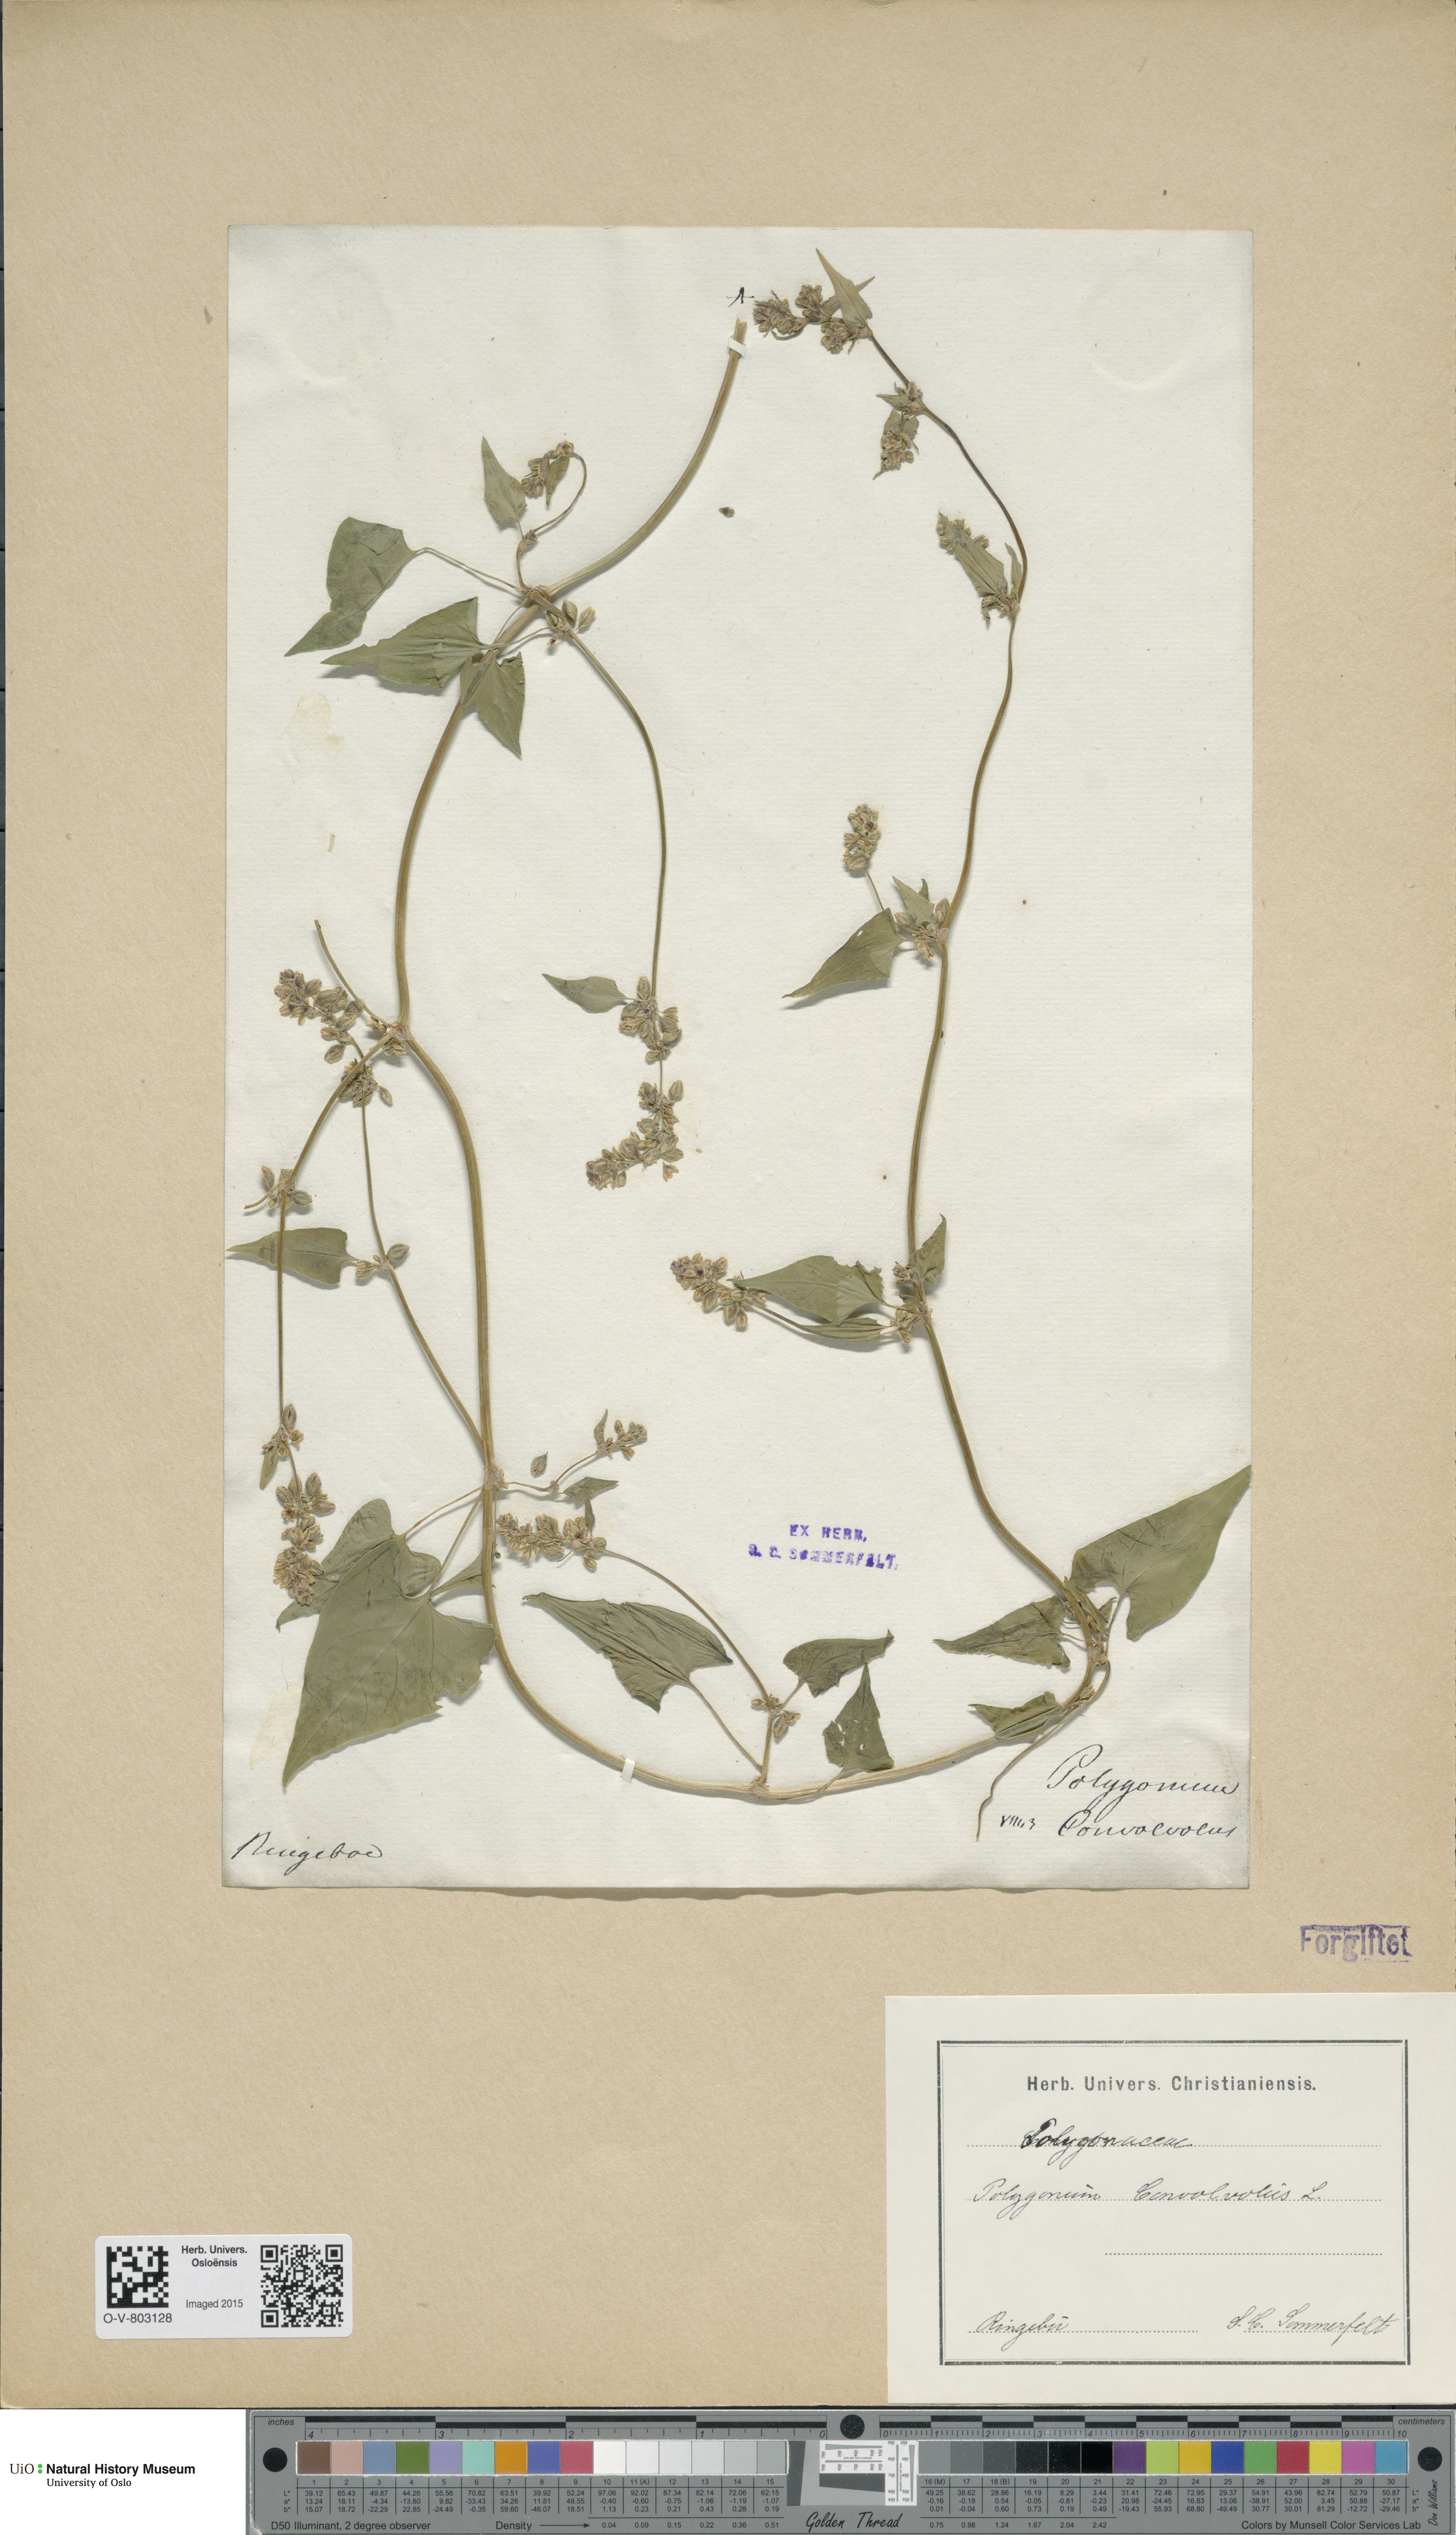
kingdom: Plantae
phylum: Tracheophyta
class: Magnoliopsida
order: Caryophyllales
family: Polygonaceae
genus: Fallopia
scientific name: Fallopia convolvulus
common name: Black bindweed
